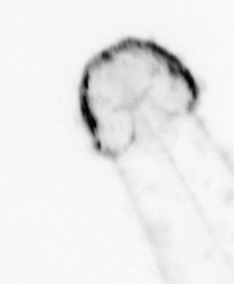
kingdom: Animalia
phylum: Chaetognatha
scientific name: Chaetognatha
